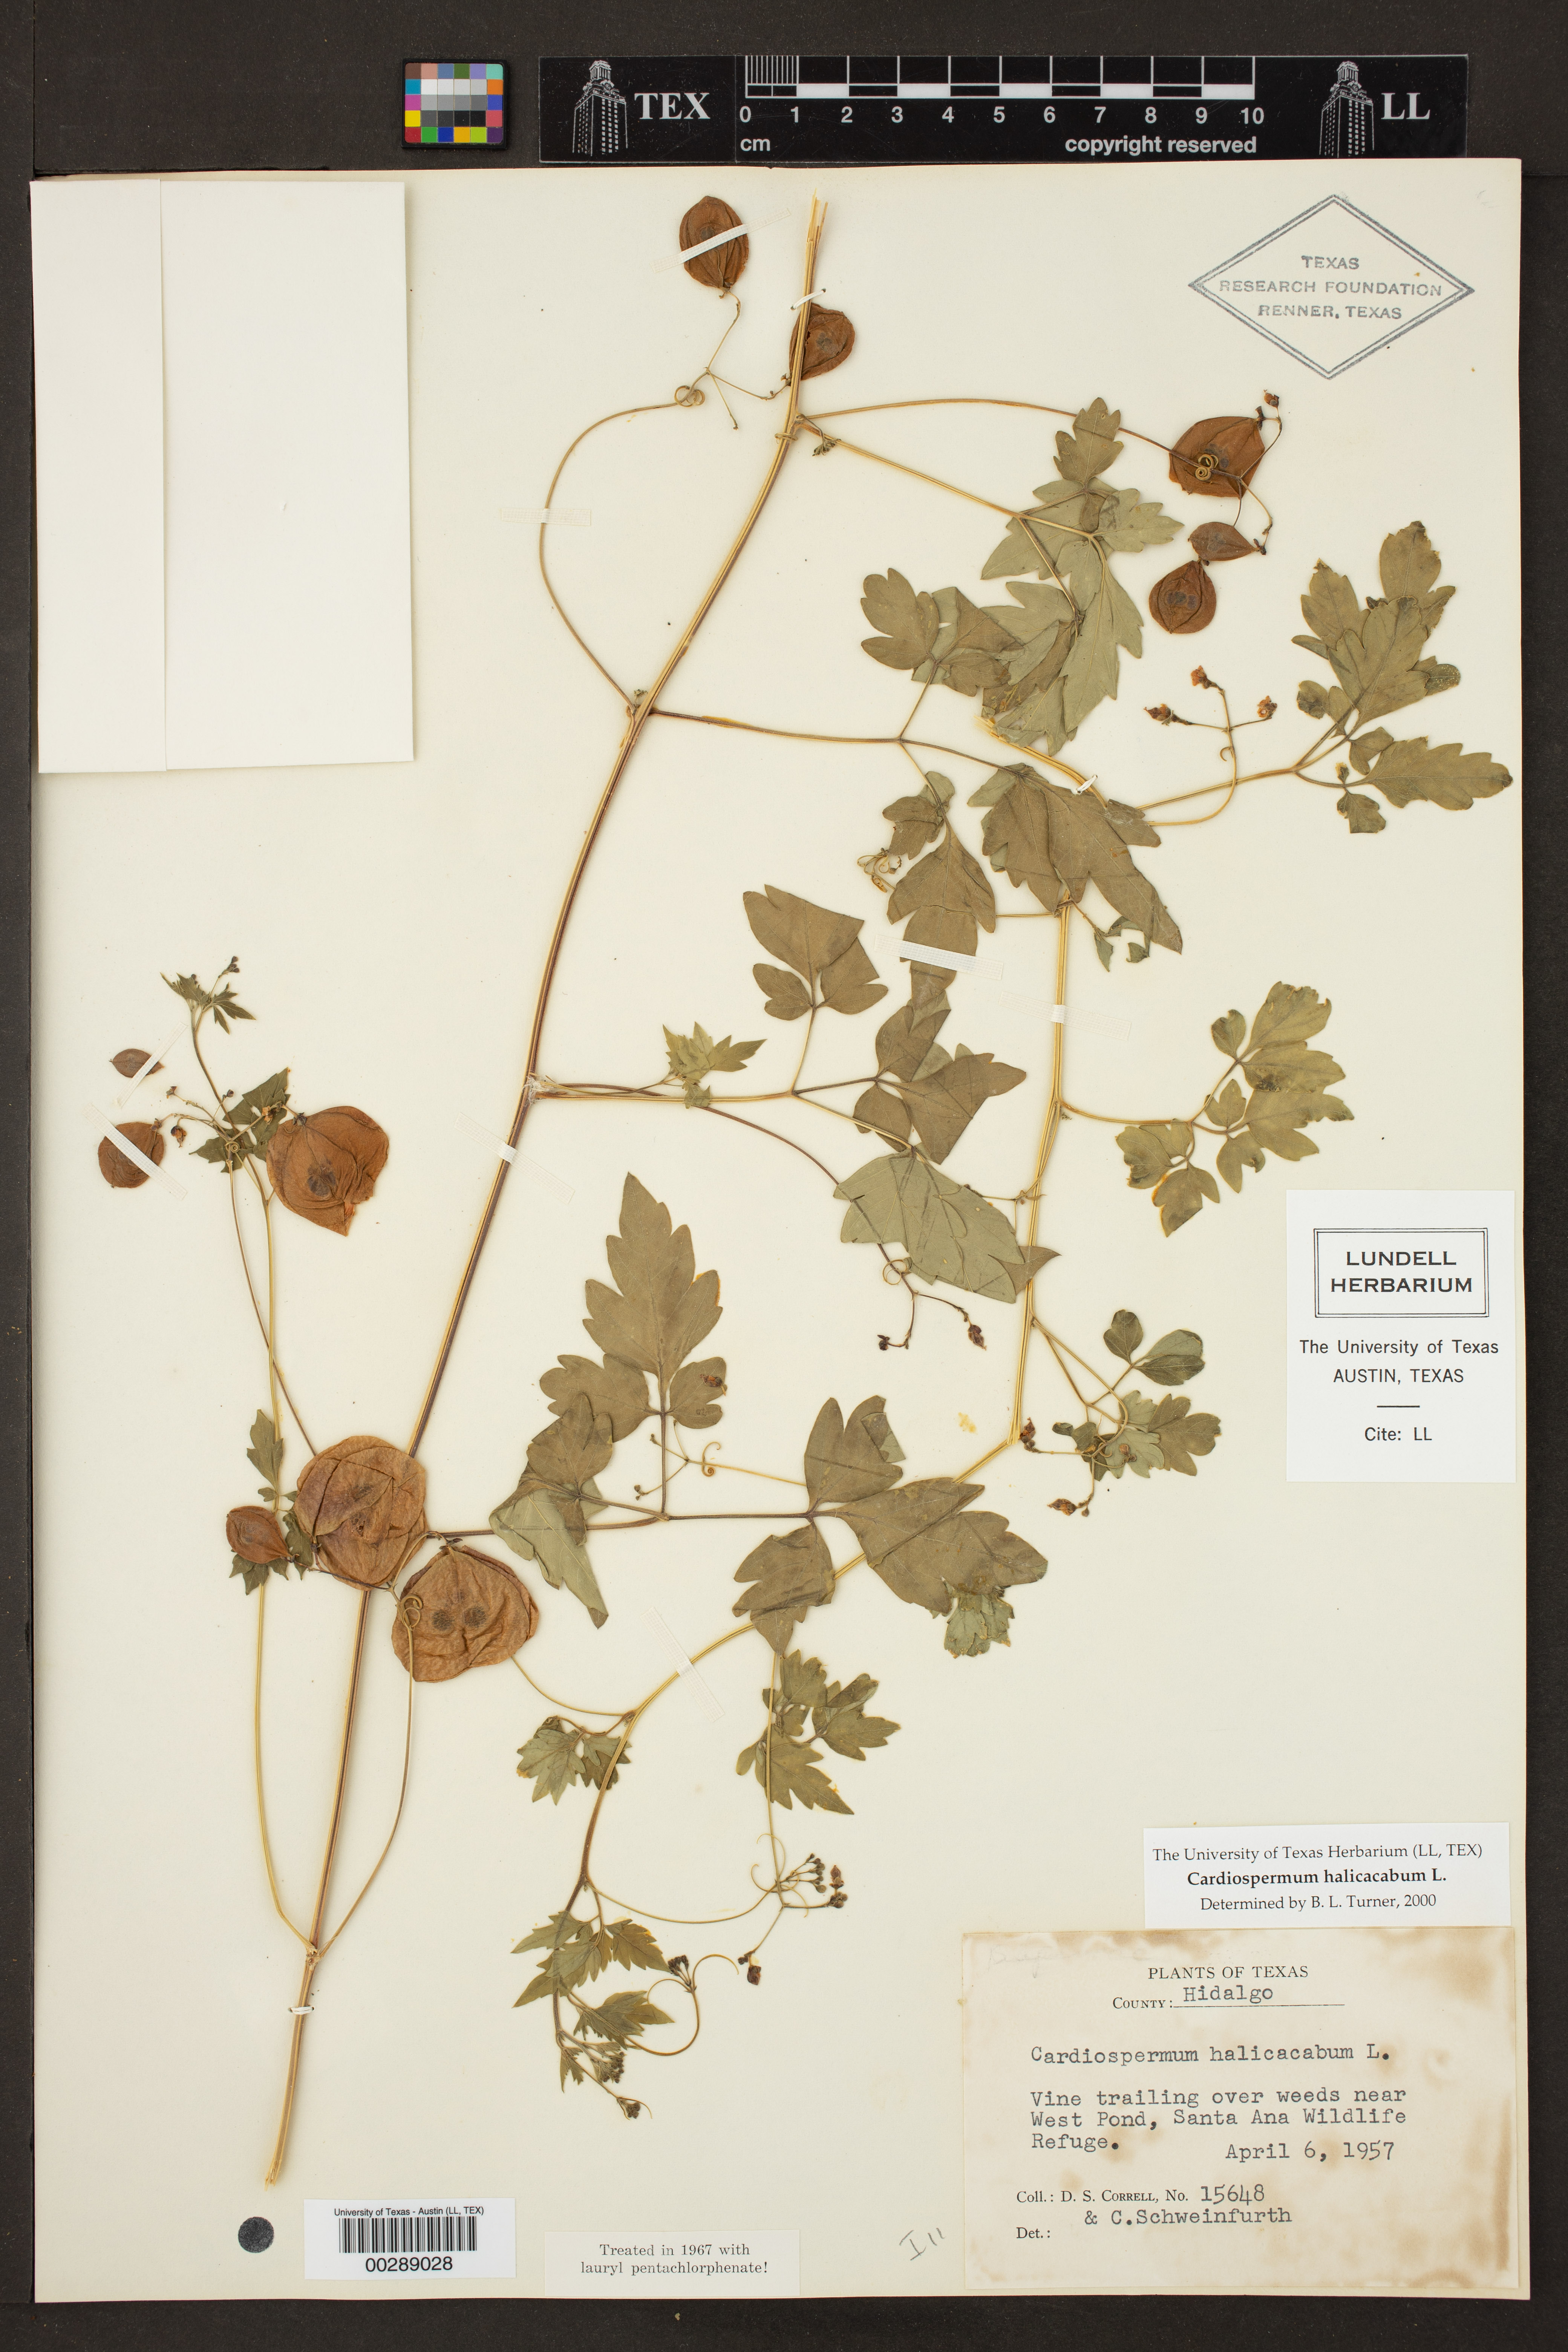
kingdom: Plantae
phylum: Tracheophyta
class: Magnoliopsida
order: Sapindales
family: Sapindaceae
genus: Cardiospermum
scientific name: Cardiospermum halicacabum
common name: Balloon vine
